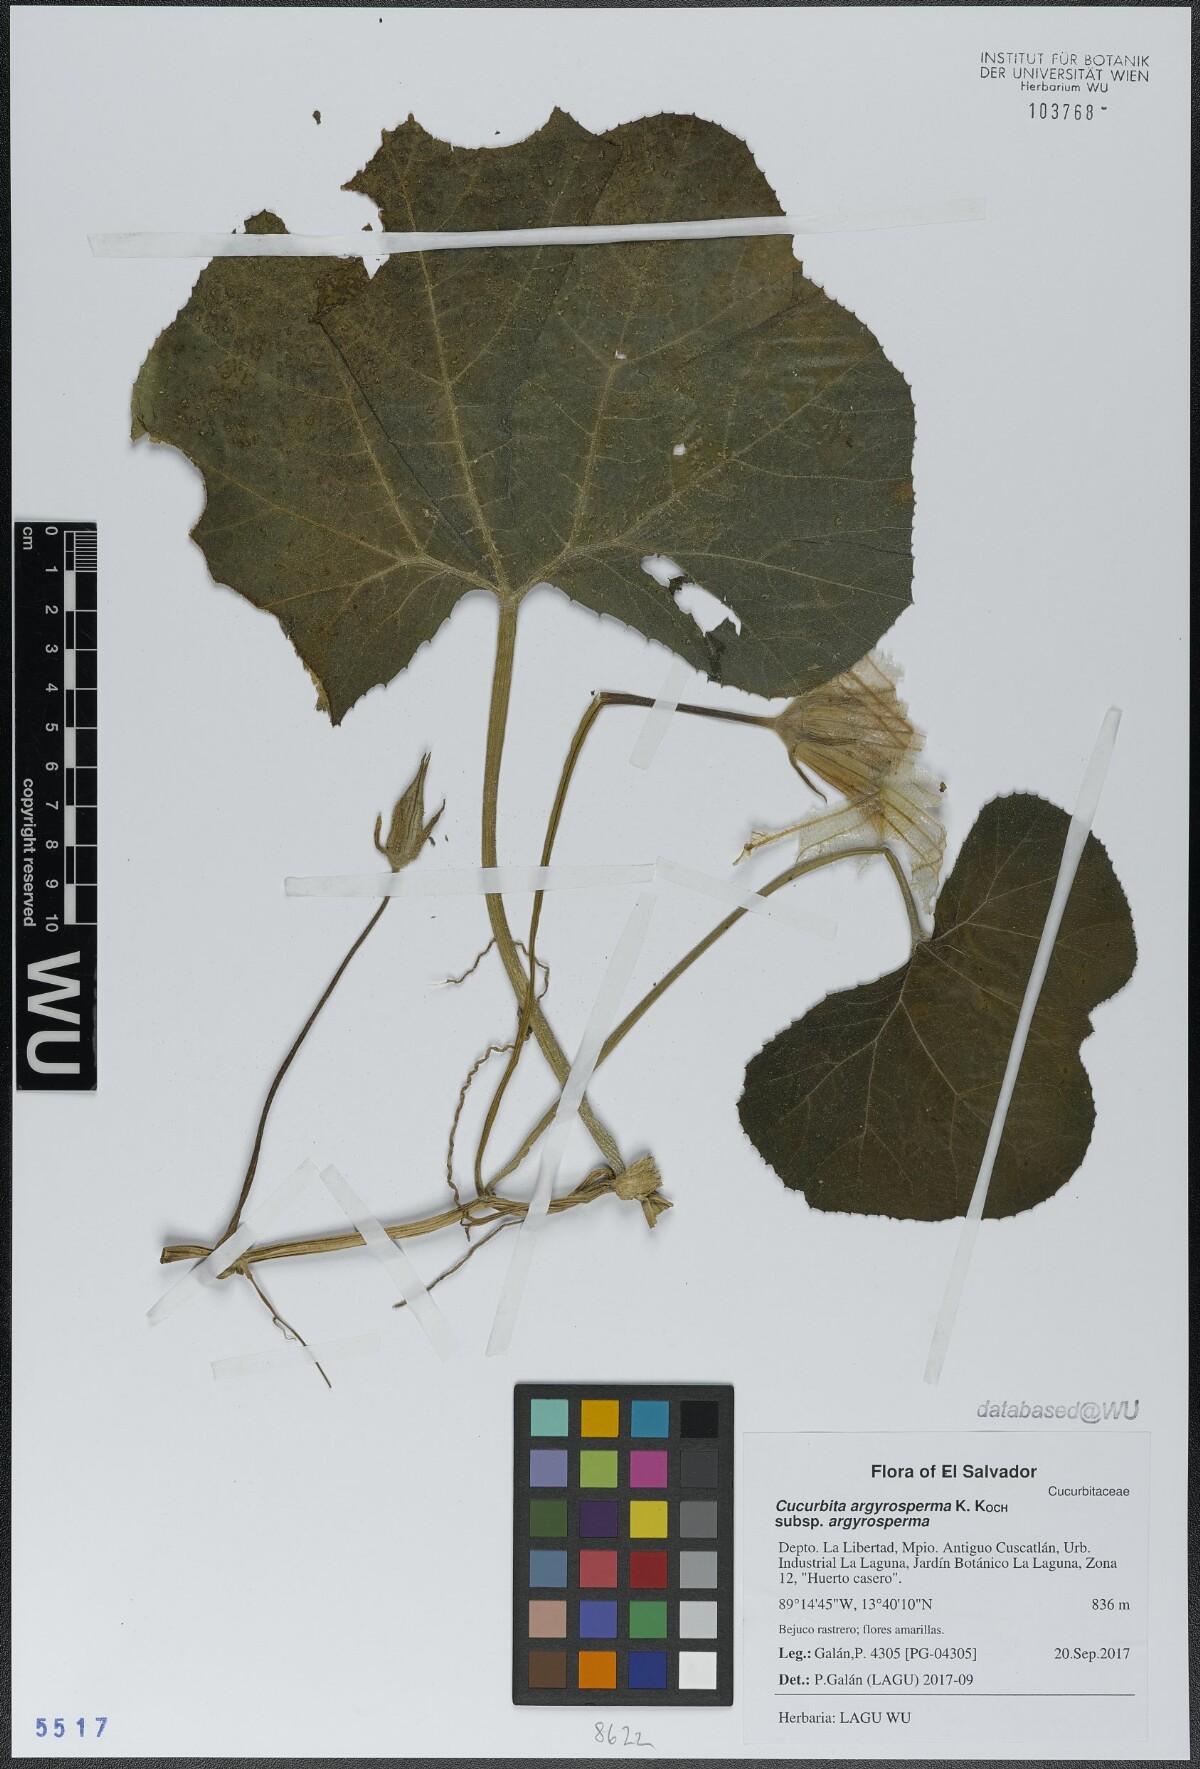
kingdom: Plantae
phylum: Tracheophyta
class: Magnoliopsida
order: Cucurbitales
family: Cucurbitaceae
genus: Cucurbita
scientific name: Cucurbita argyrosperma
